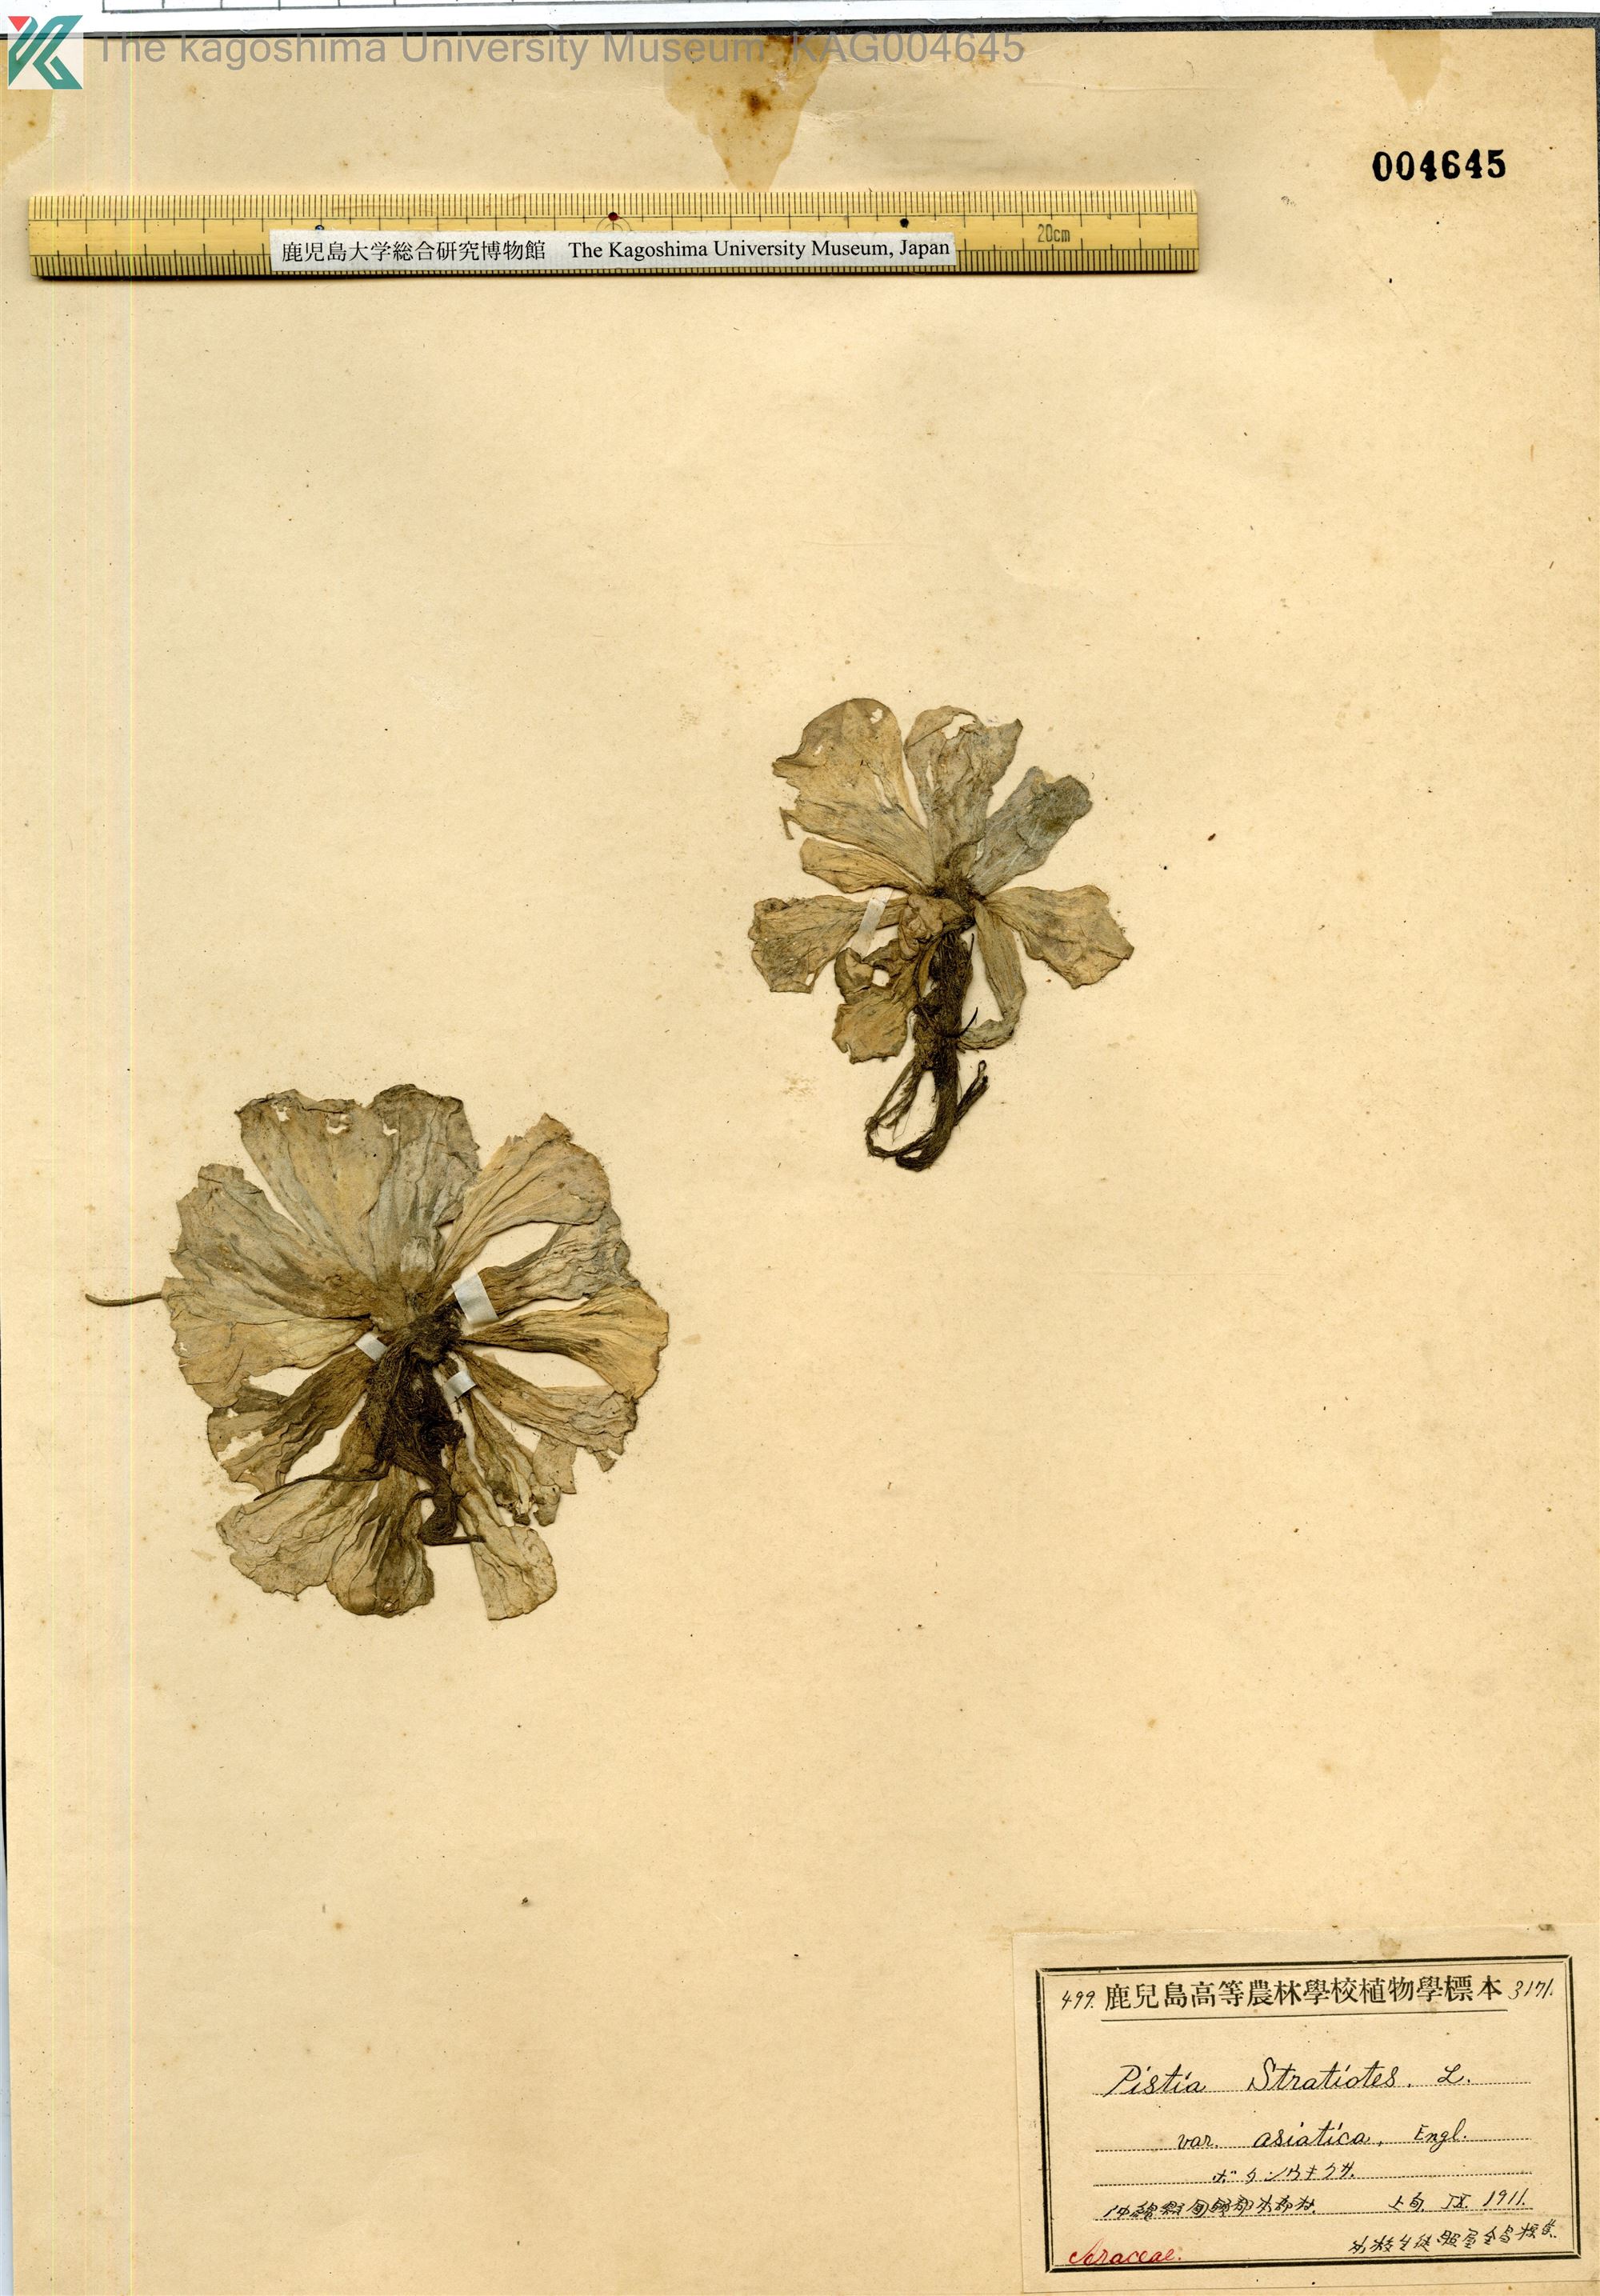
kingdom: Plantae
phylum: Tracheophyta
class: Liliopsida
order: Alismatales
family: Araceae
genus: Pistia
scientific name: Pistia stratiotes
